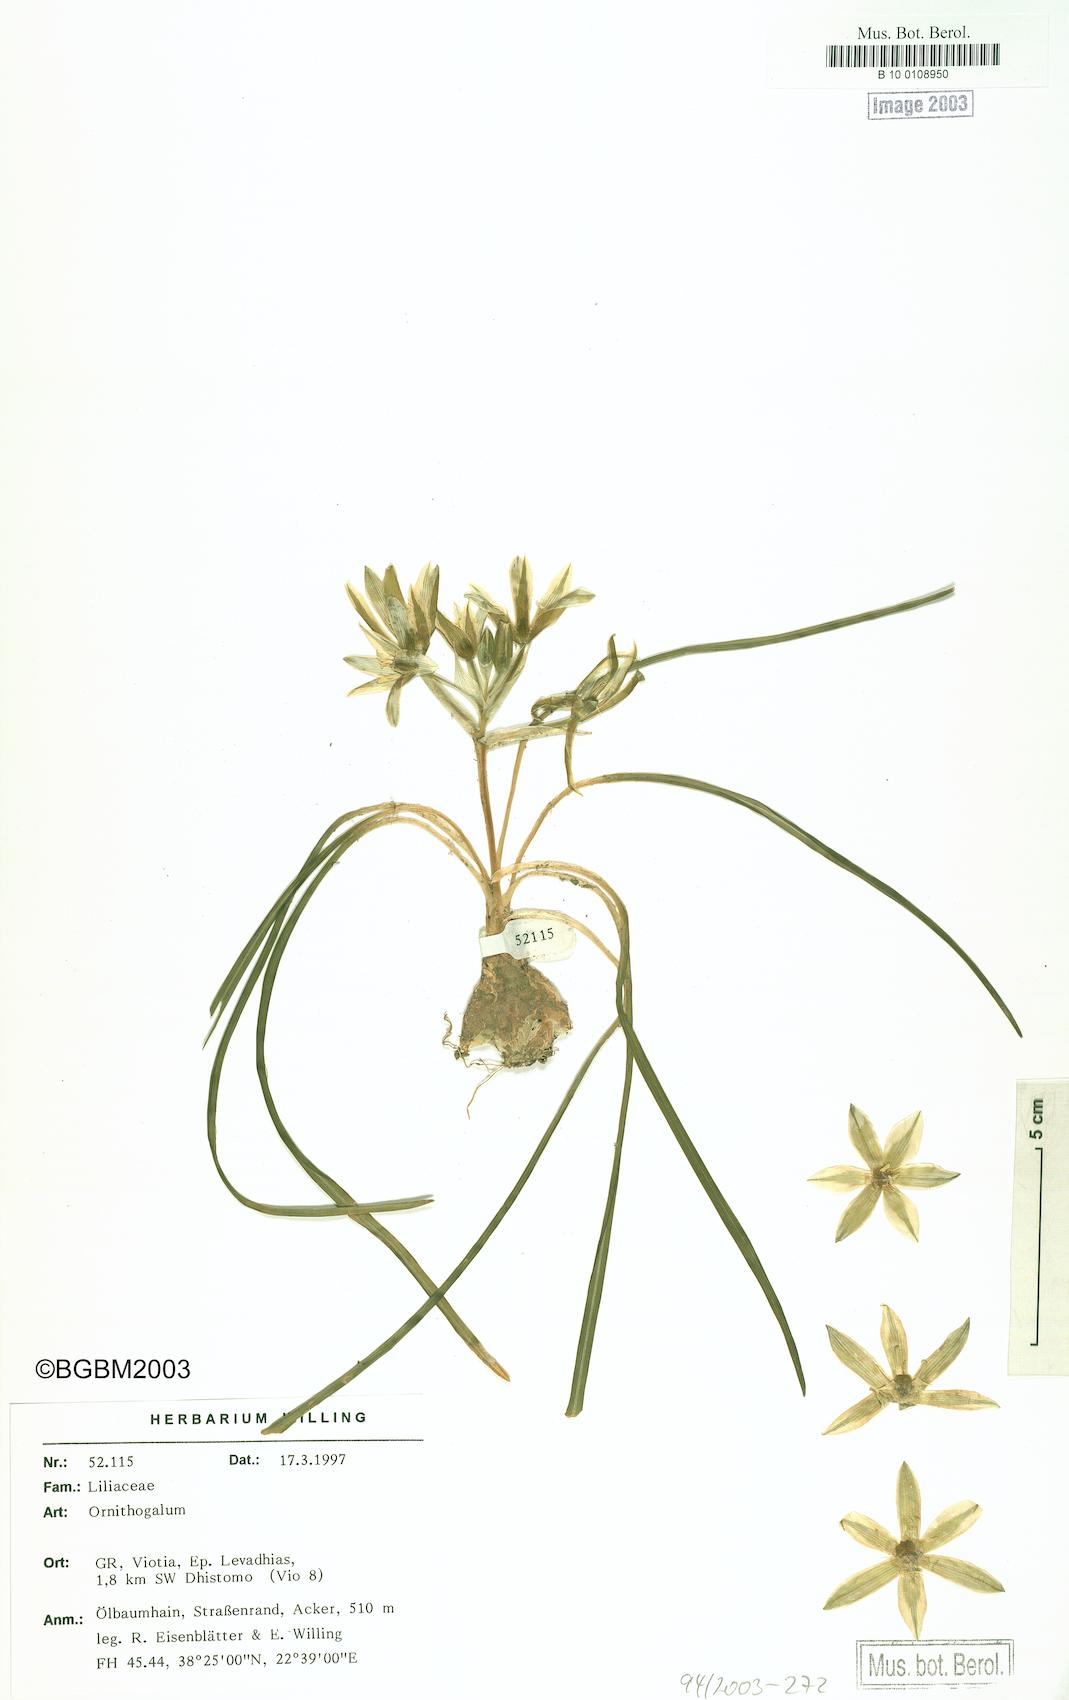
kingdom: Plantae
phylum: Tracheophyta
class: Liliopsida
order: Asparagales
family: Asparagaceae
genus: Ornithogalum
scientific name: Ornithogalum
